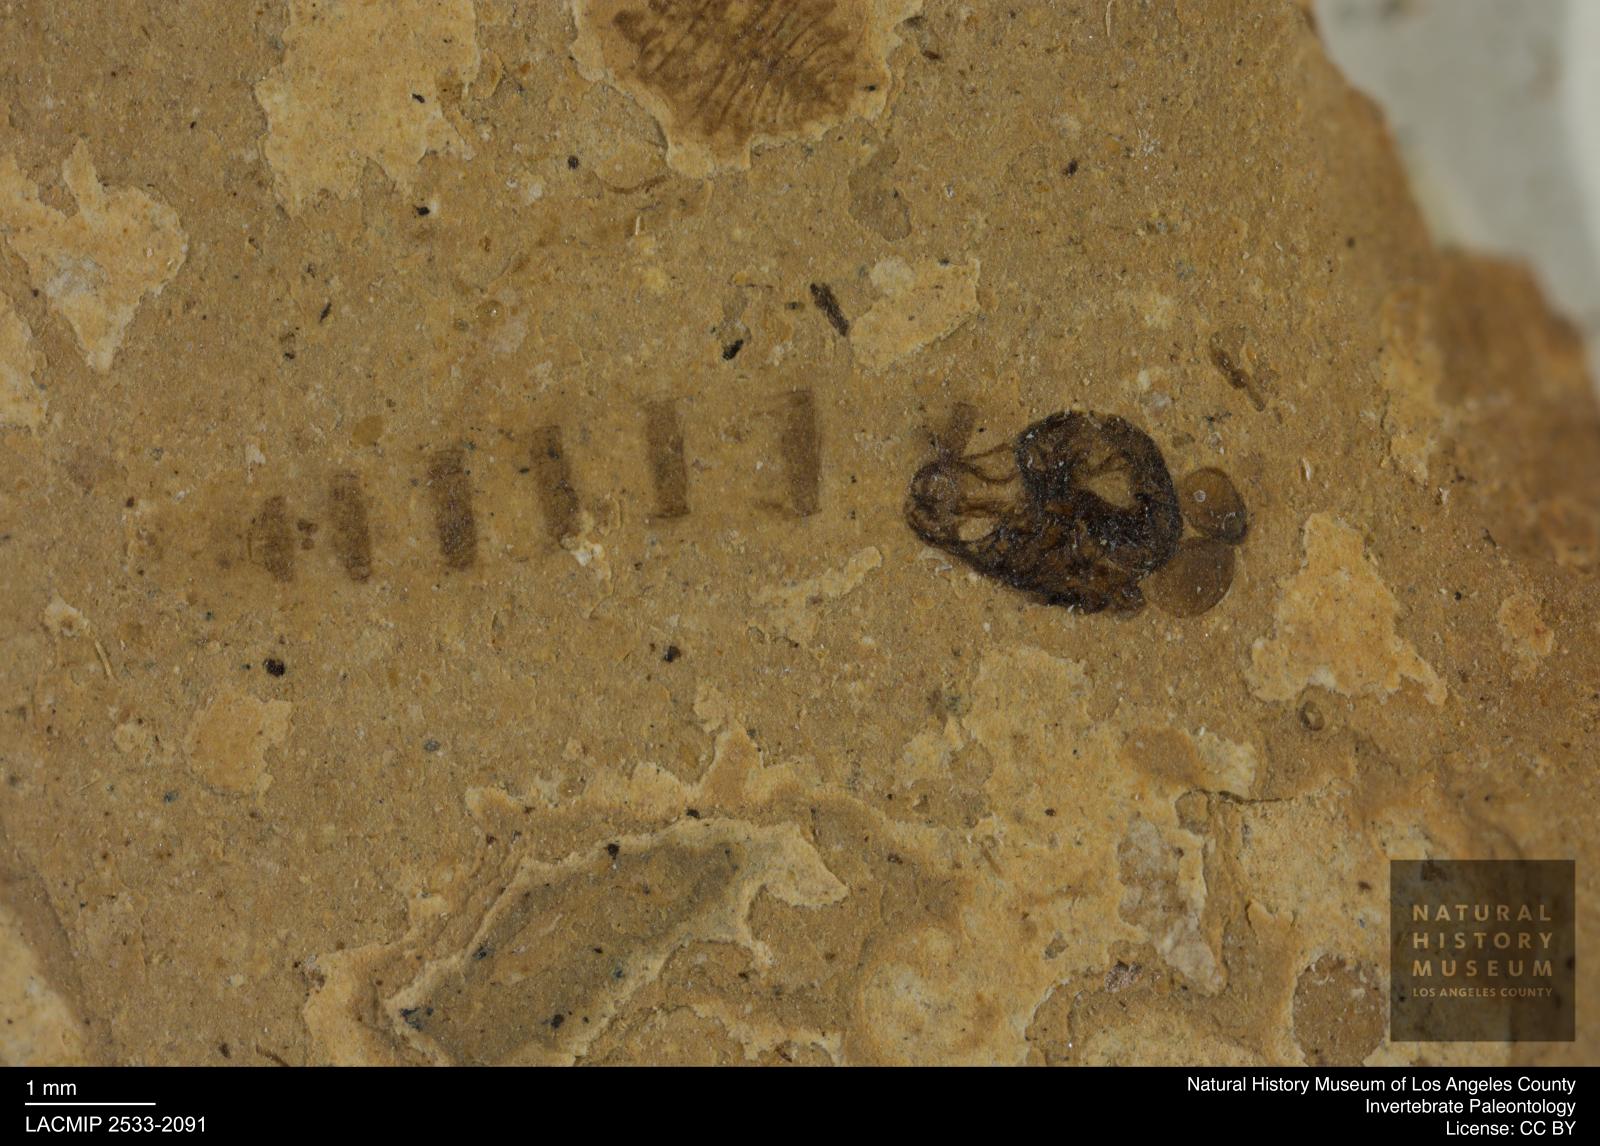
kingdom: Animalia
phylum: Arthropoda
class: Insecta
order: Diptera
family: Chironomidae
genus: Pelopiina
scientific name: Pelopiina
